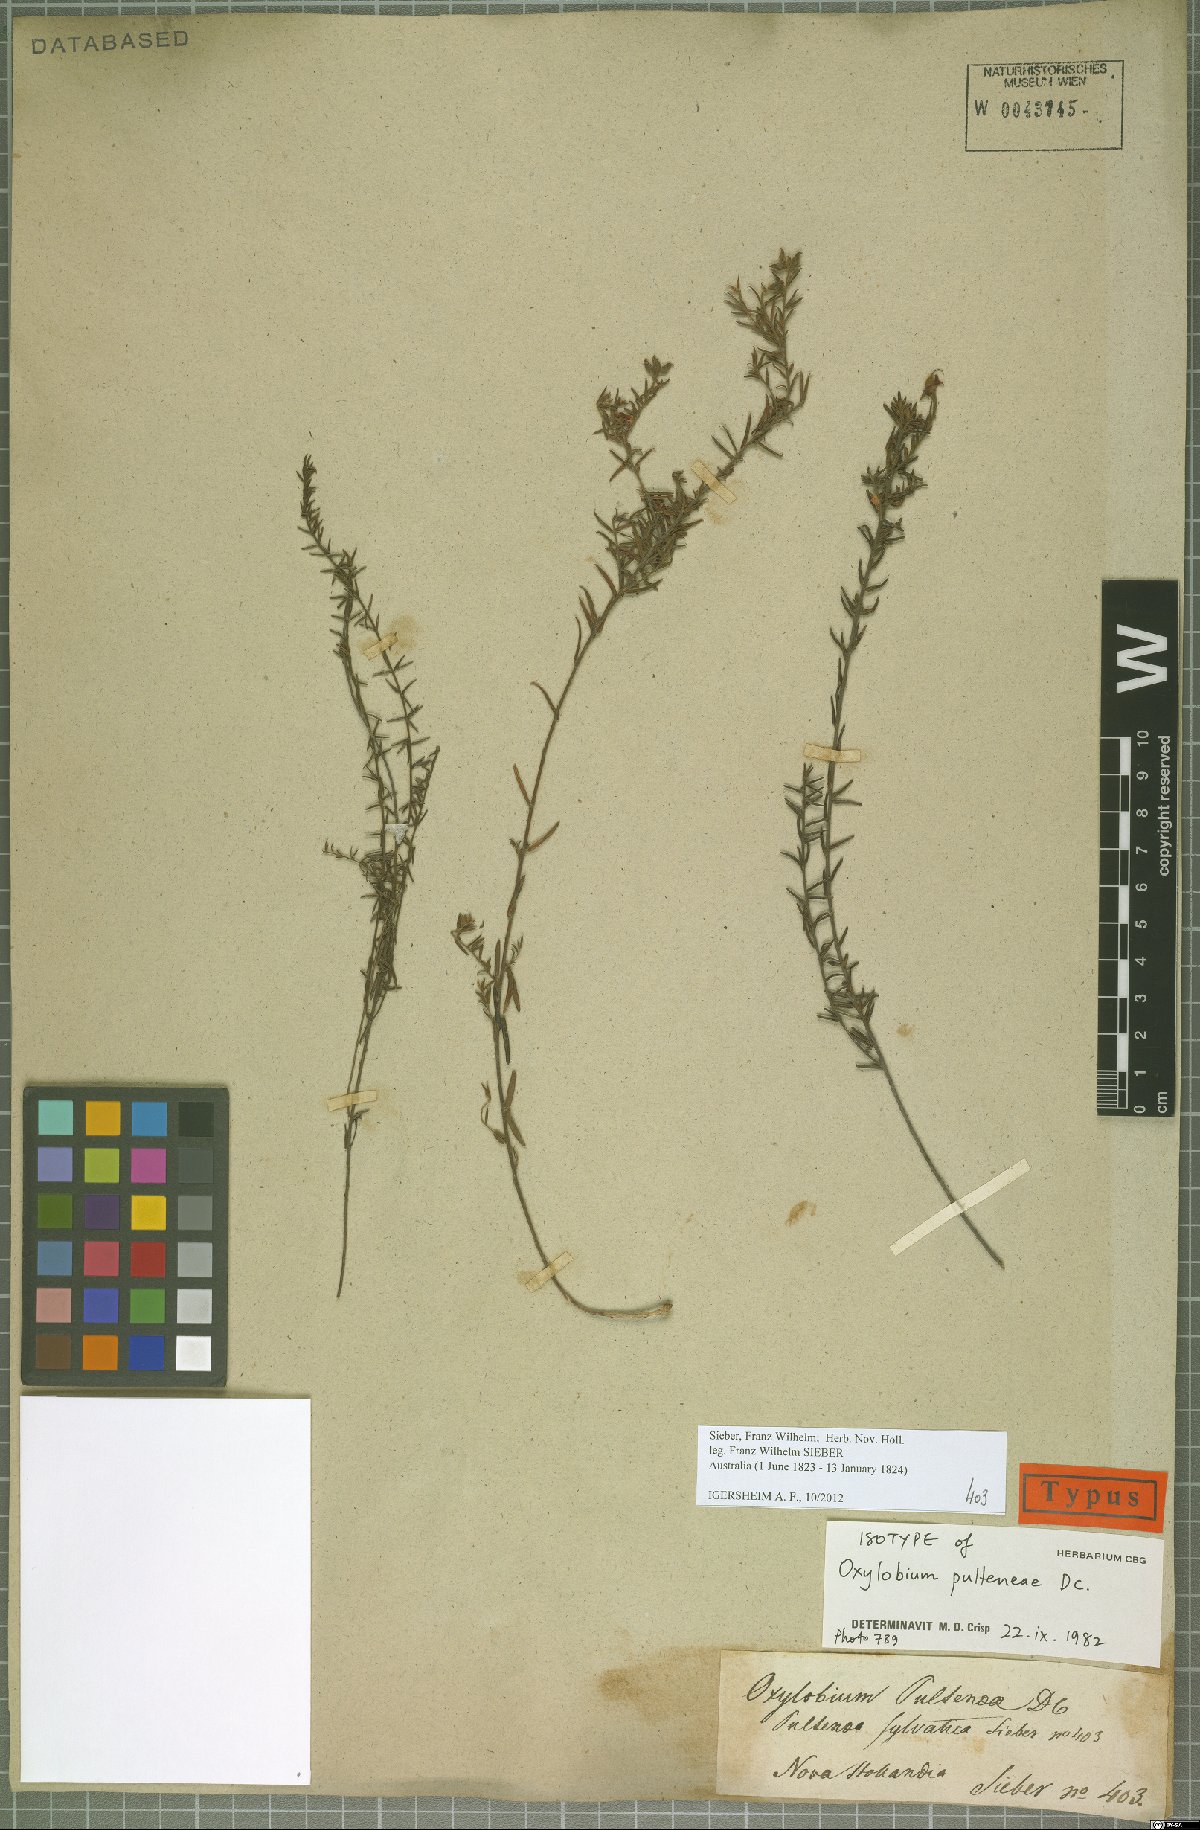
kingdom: Plantae
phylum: Tracheophyta
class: Magnoliopsida
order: Fabales
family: Fabaceae
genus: Oxylobium
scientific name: Oxylobium pulteneae
